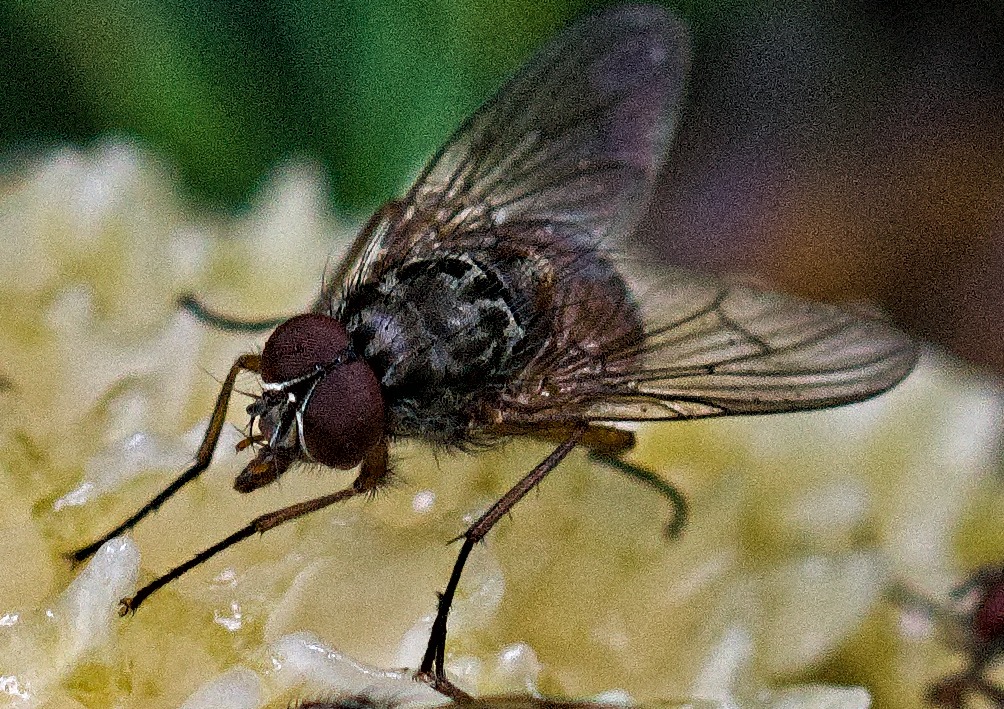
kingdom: Animalia
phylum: Arthropoda
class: Insecta
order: Diptera
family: Muscidae
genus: Phaonia
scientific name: Phaonia subventa
